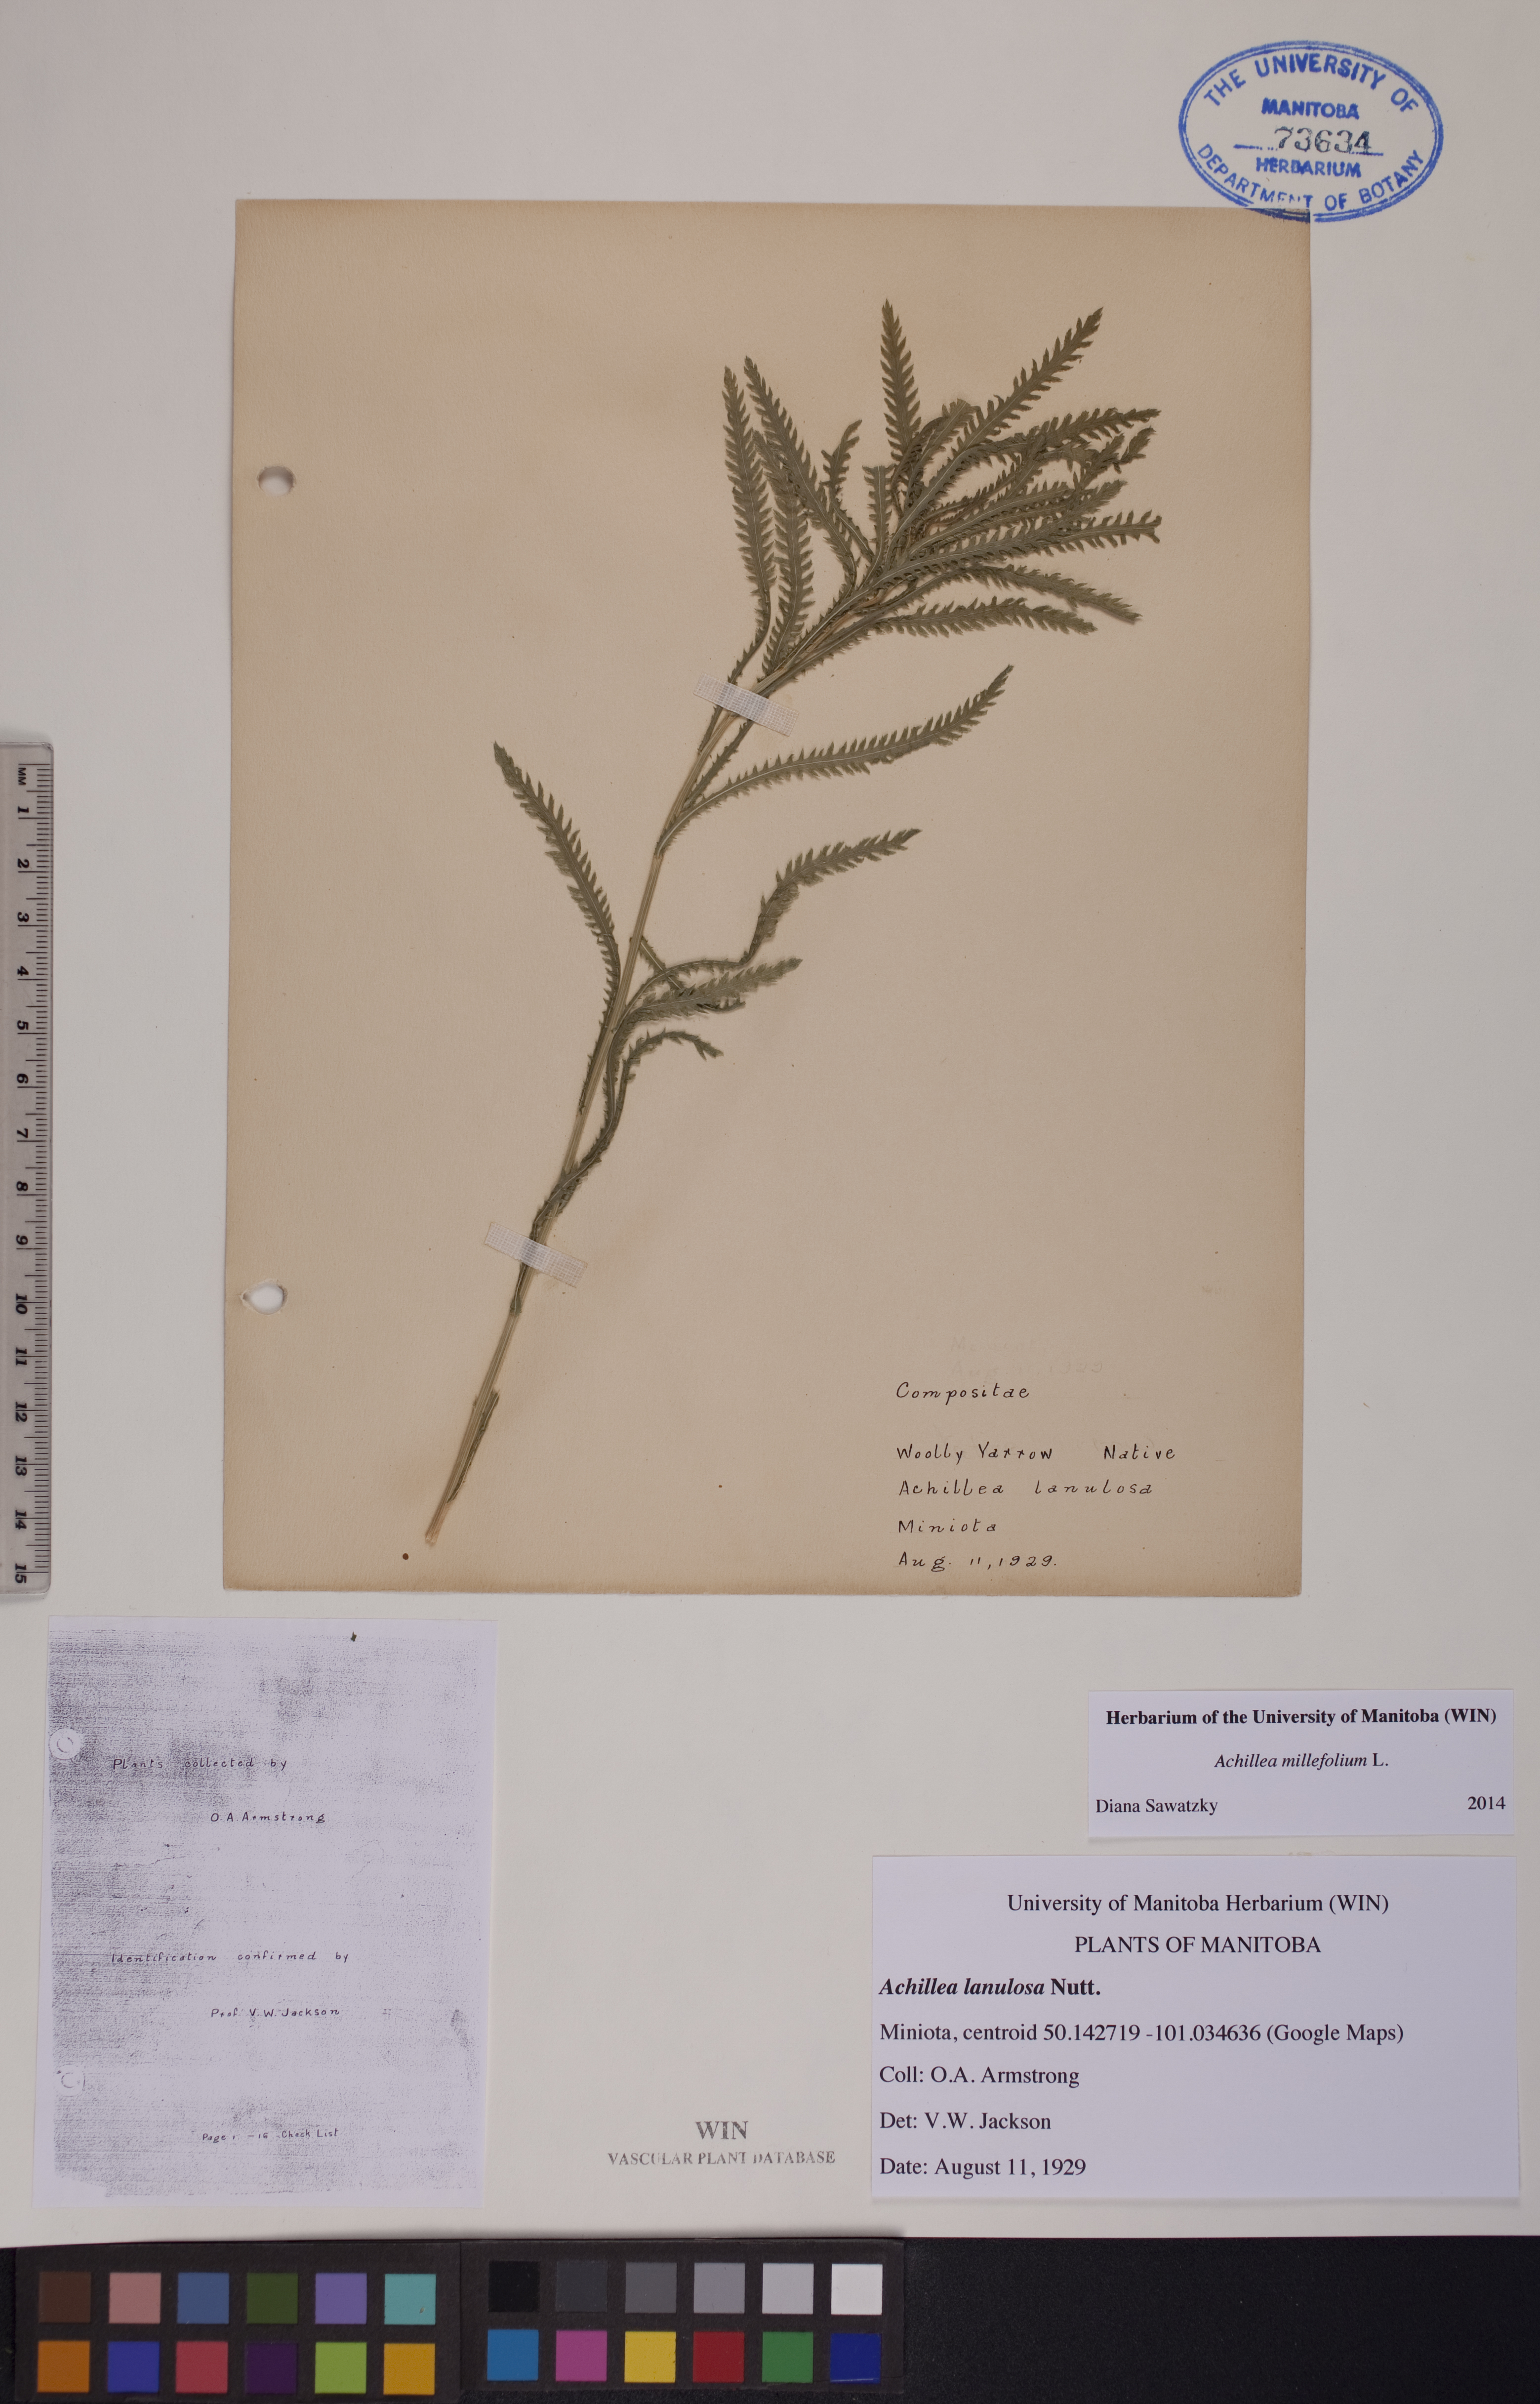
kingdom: Plantae
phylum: Tracheophyta
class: Magnoliopsida
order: Asterales
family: Asteraceae
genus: Achillea
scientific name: Achillea millefolium
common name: Yarrow
